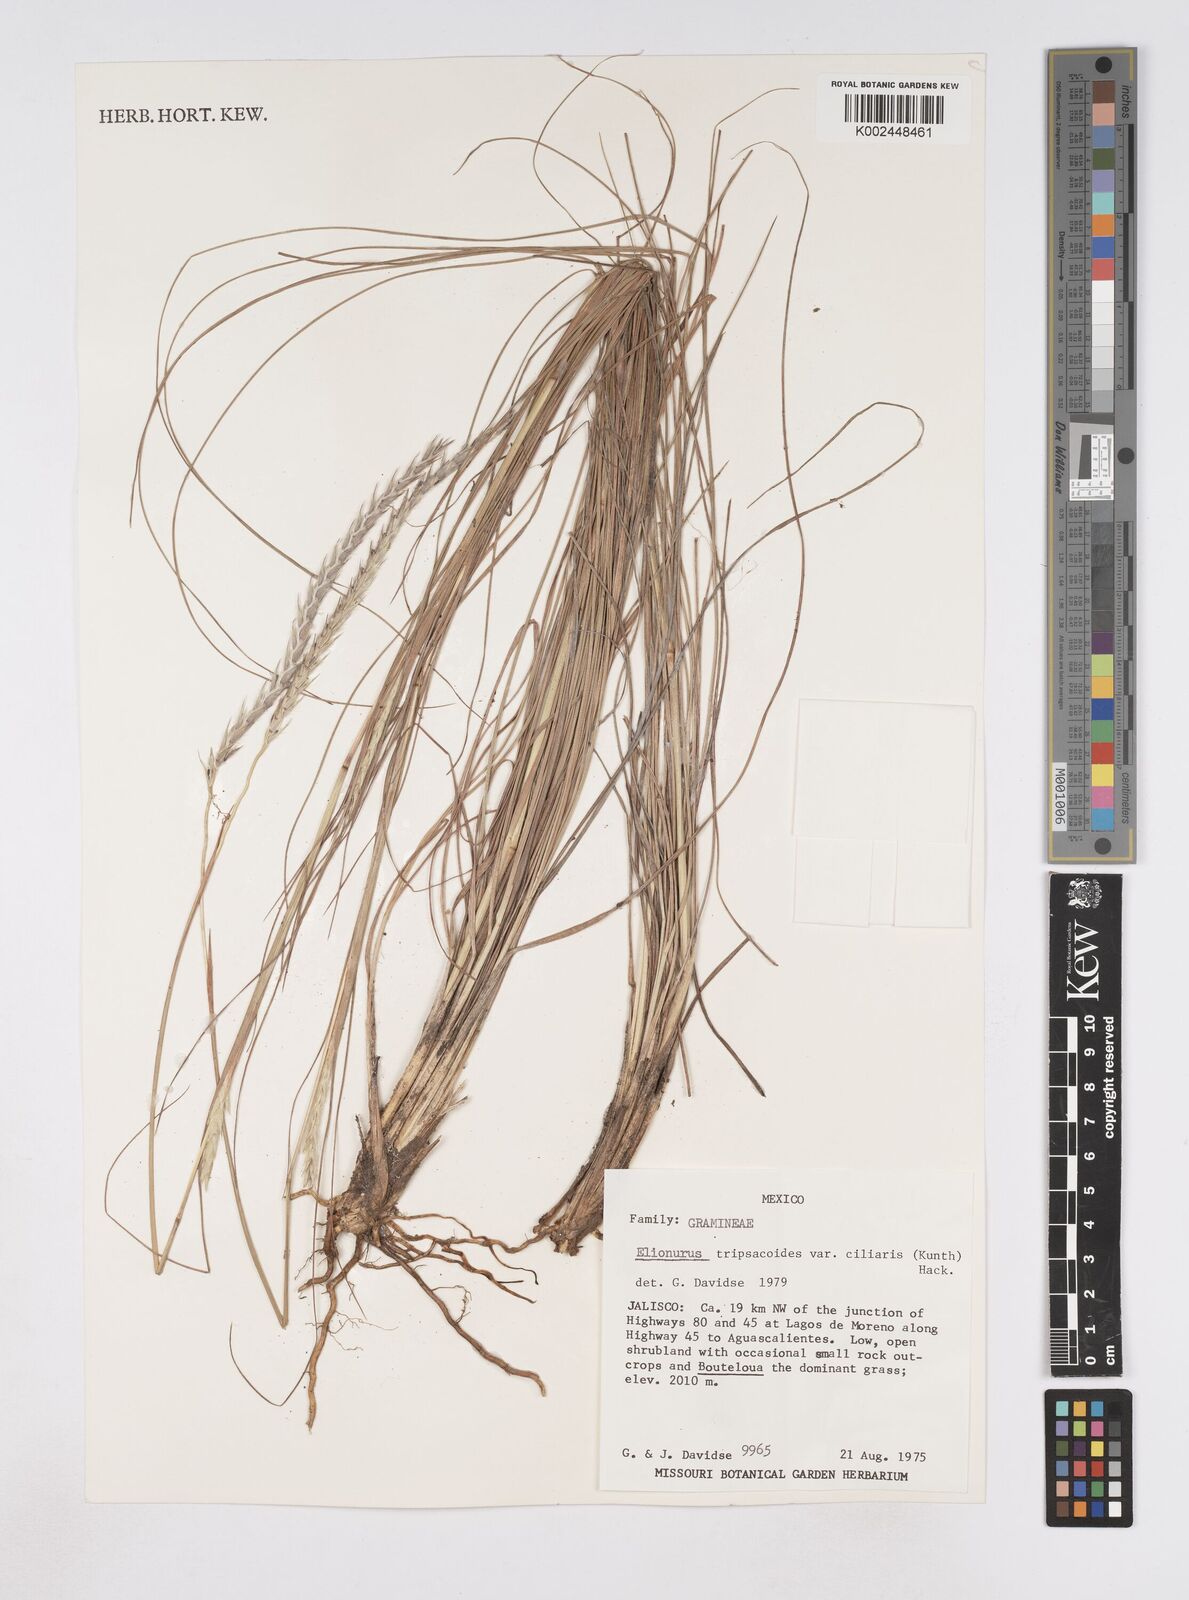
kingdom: Plantae
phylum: Tracheophyta
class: Liliopsida
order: Poales
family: Poaceae
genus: Elionurus
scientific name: Elionurus ciliaris
